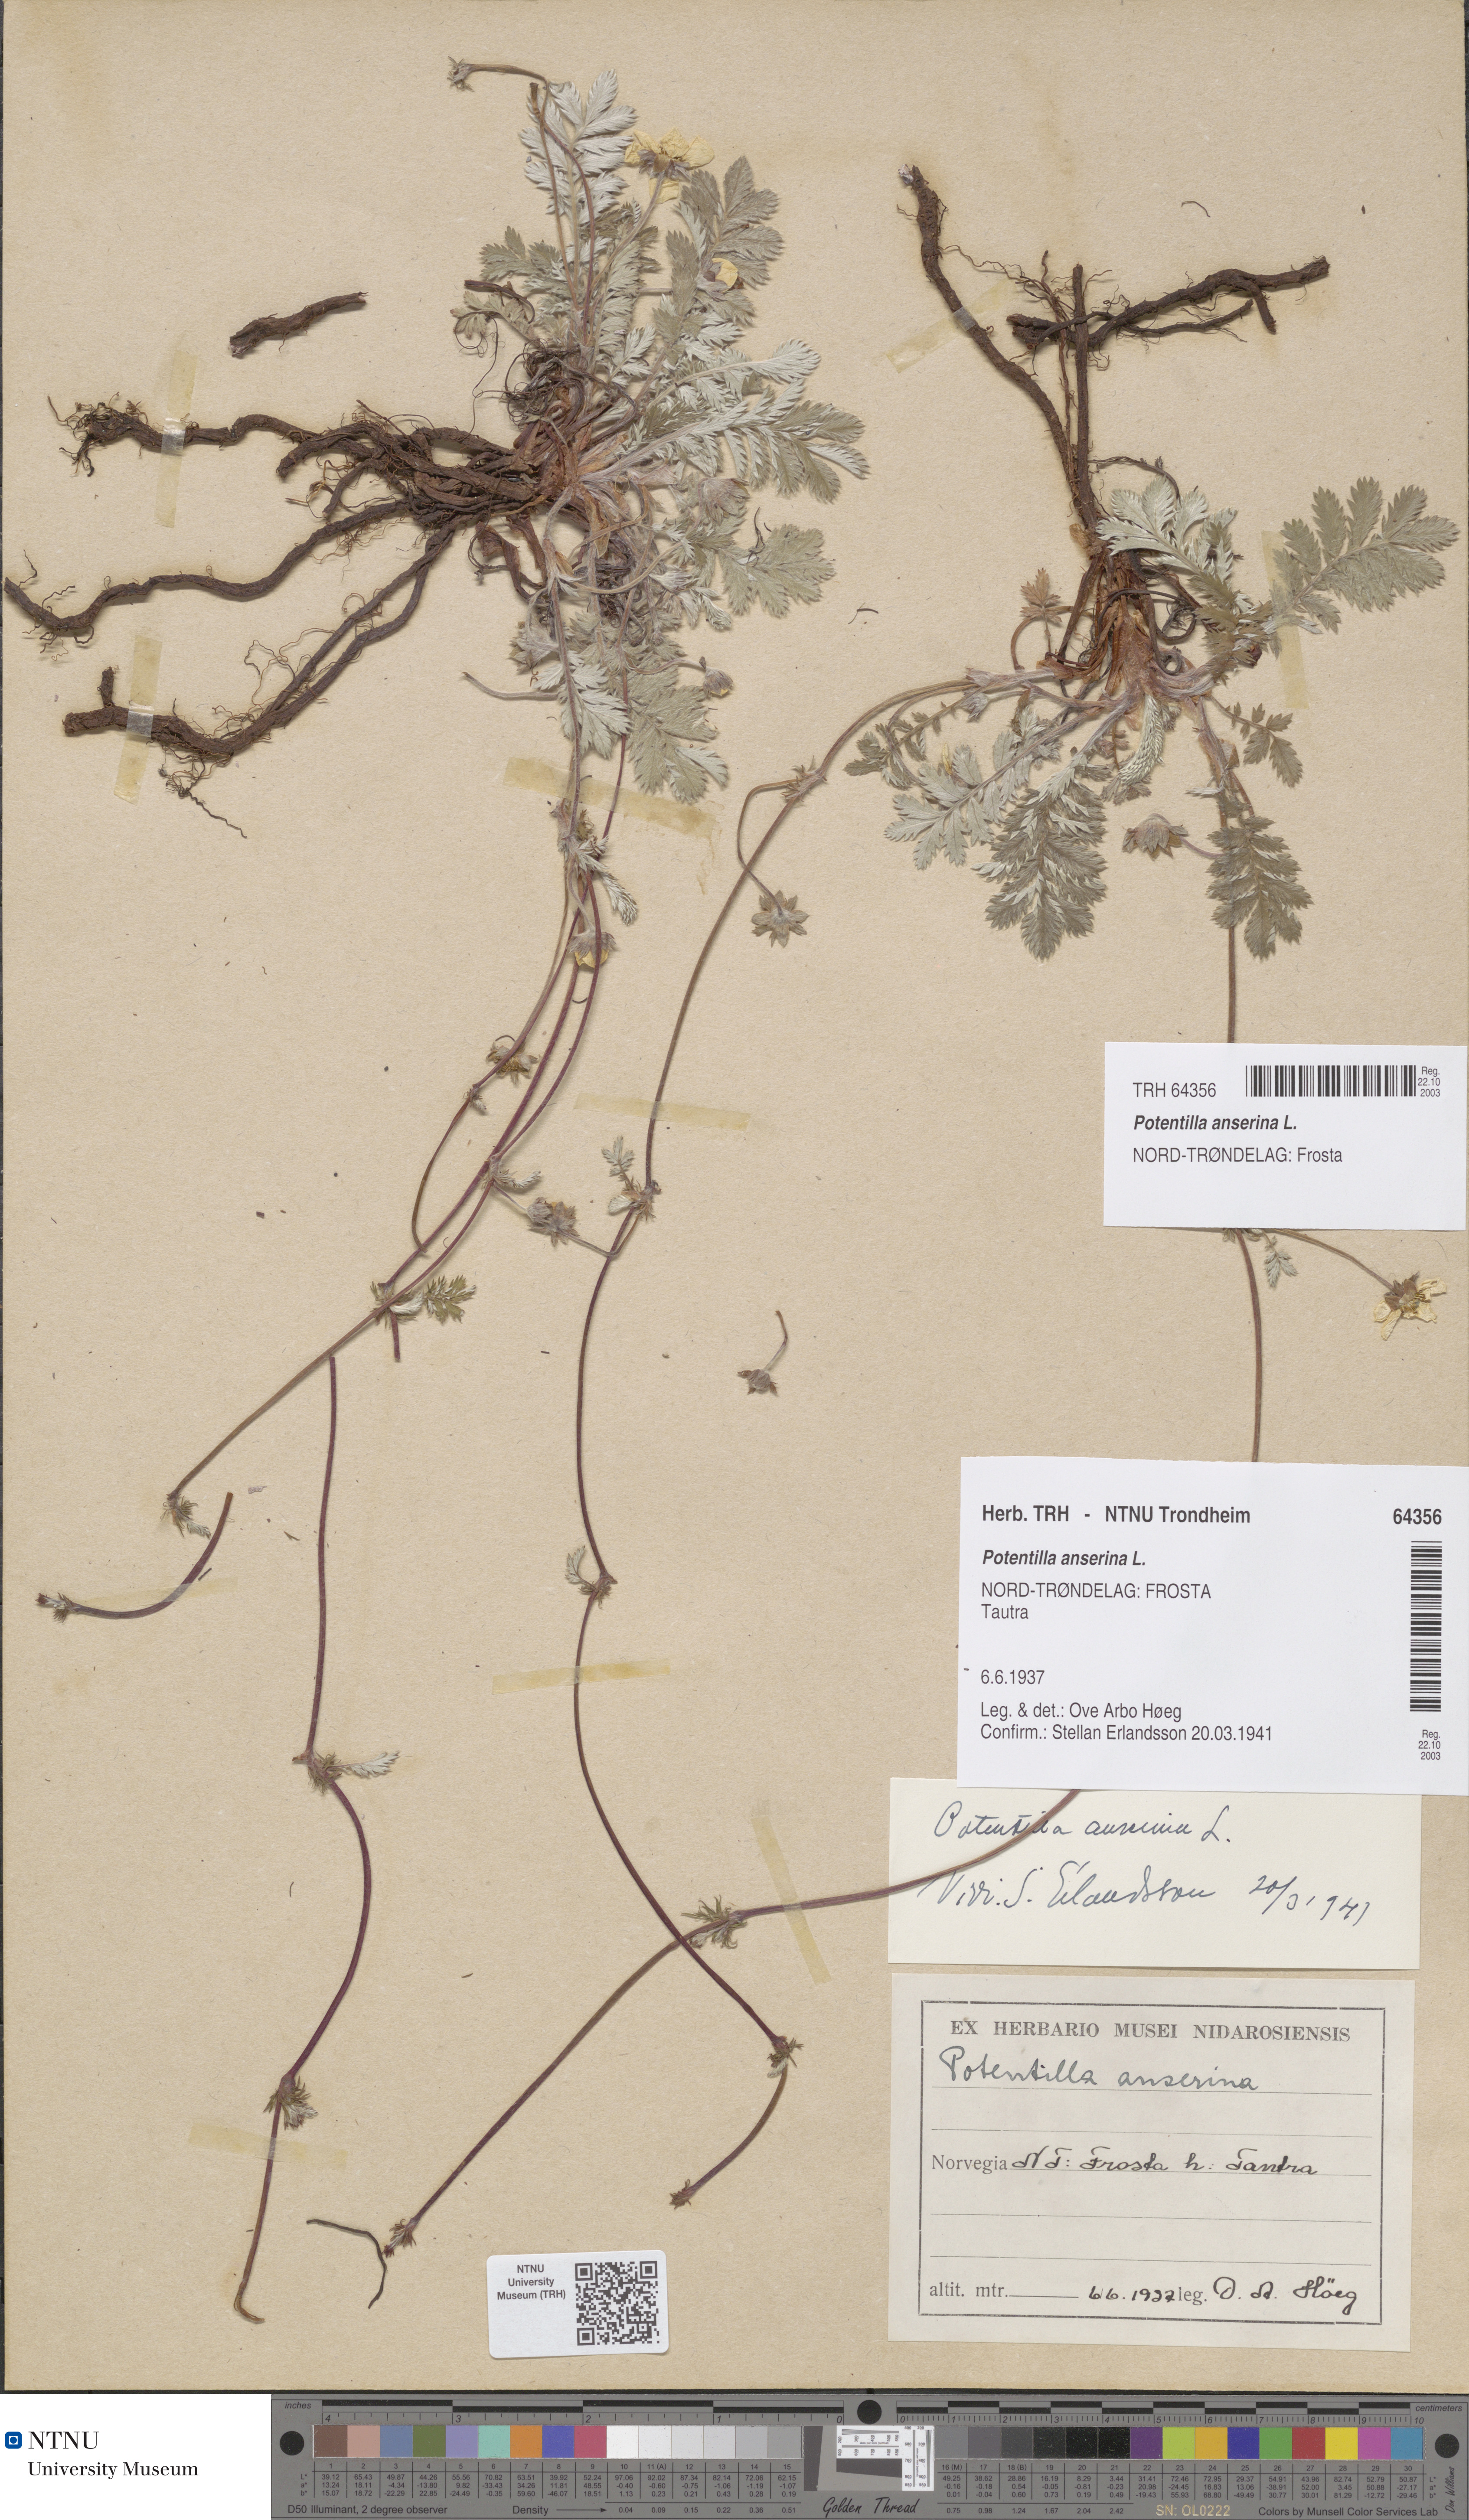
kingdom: Plantae
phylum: Tracheophyta
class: Magnoliopsida
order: Rosales
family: Rosaceae
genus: Argentina
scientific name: Argentina anserina
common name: Common silverweed
